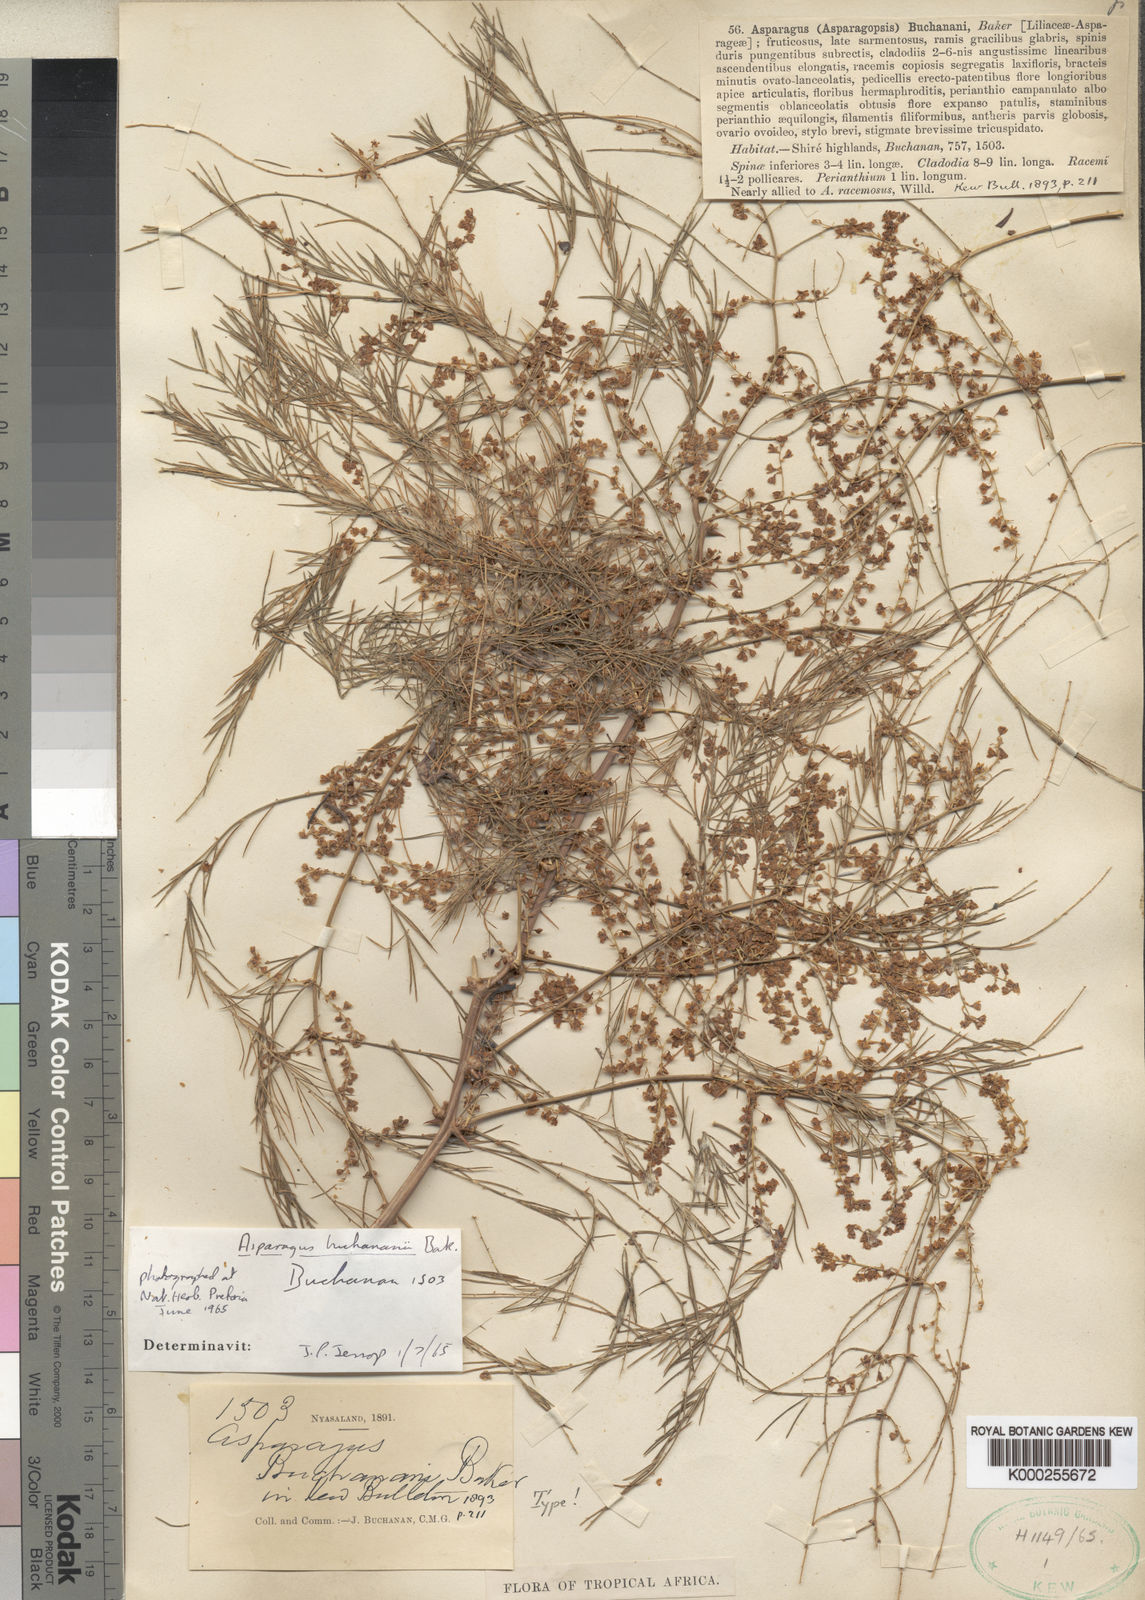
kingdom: Plantae
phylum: Tracheophyta
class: Liliopsida
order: Asparagales
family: Asparagaceae
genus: Asparagus
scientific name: Asparagus buchananii
